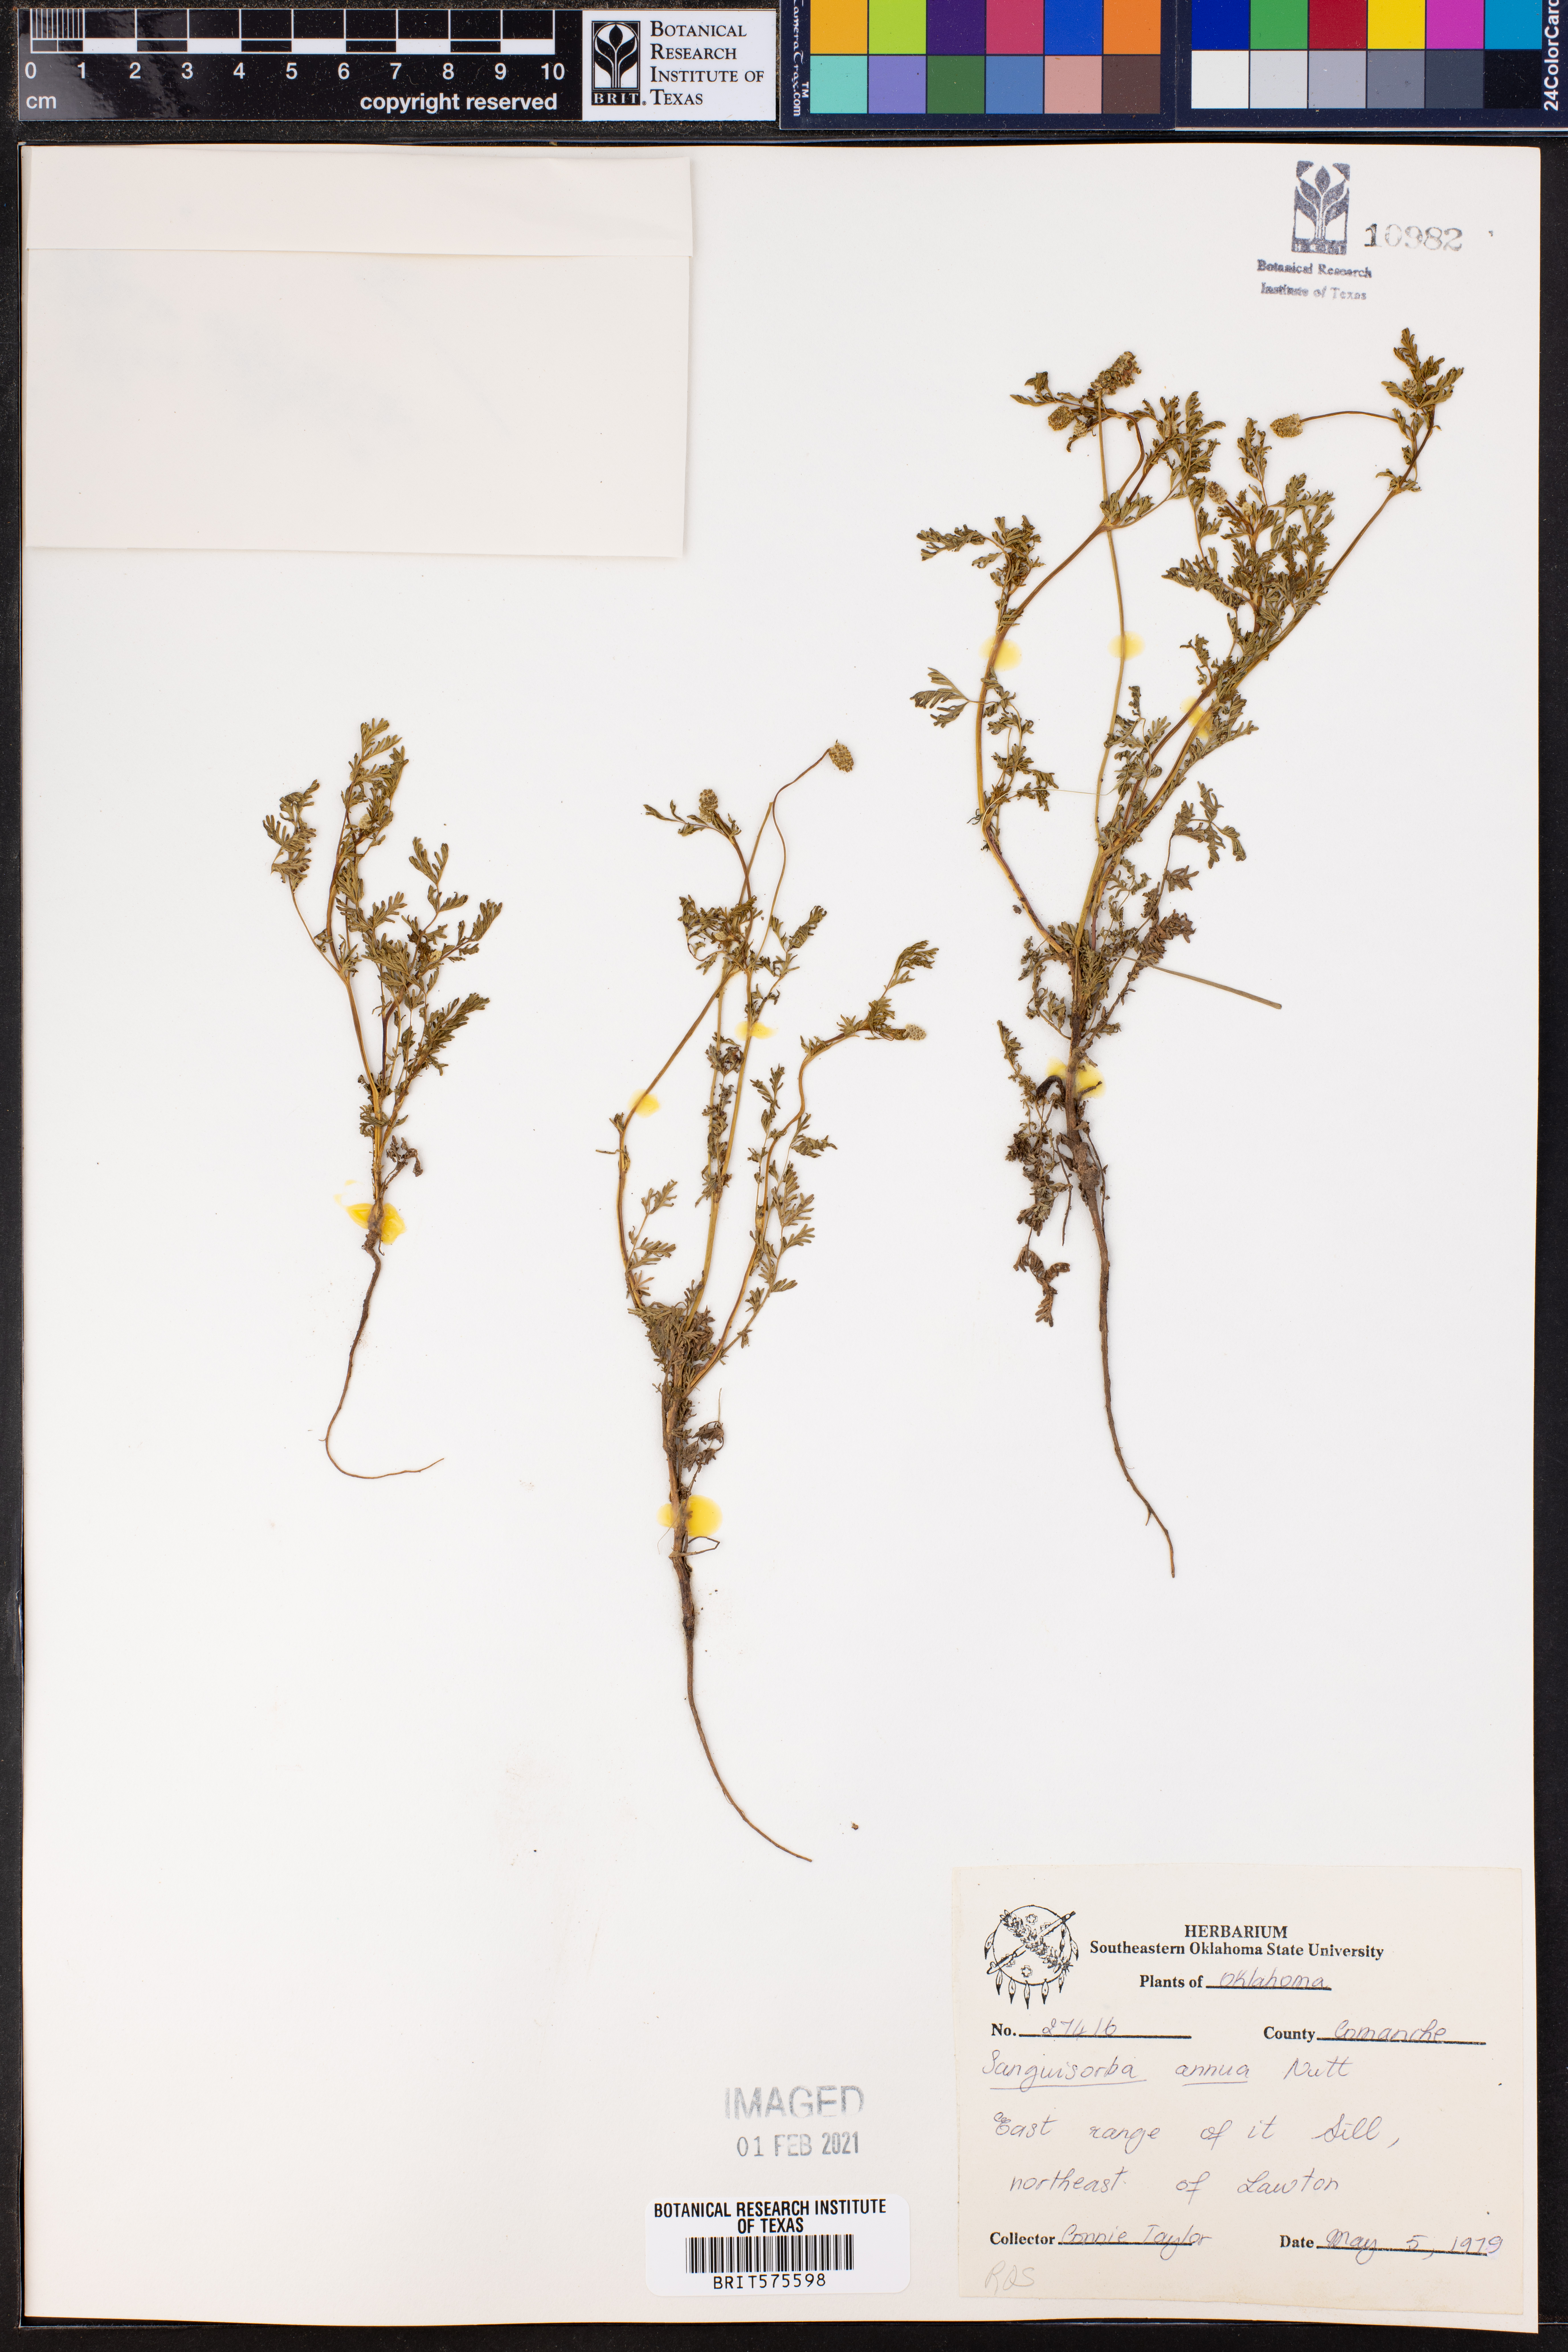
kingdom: Plantae
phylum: Tracheophyta
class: Magnoliopsida
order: Rosales
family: Rosaceae
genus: Poteridium
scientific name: Poteridium annuum
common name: Annual burnet
